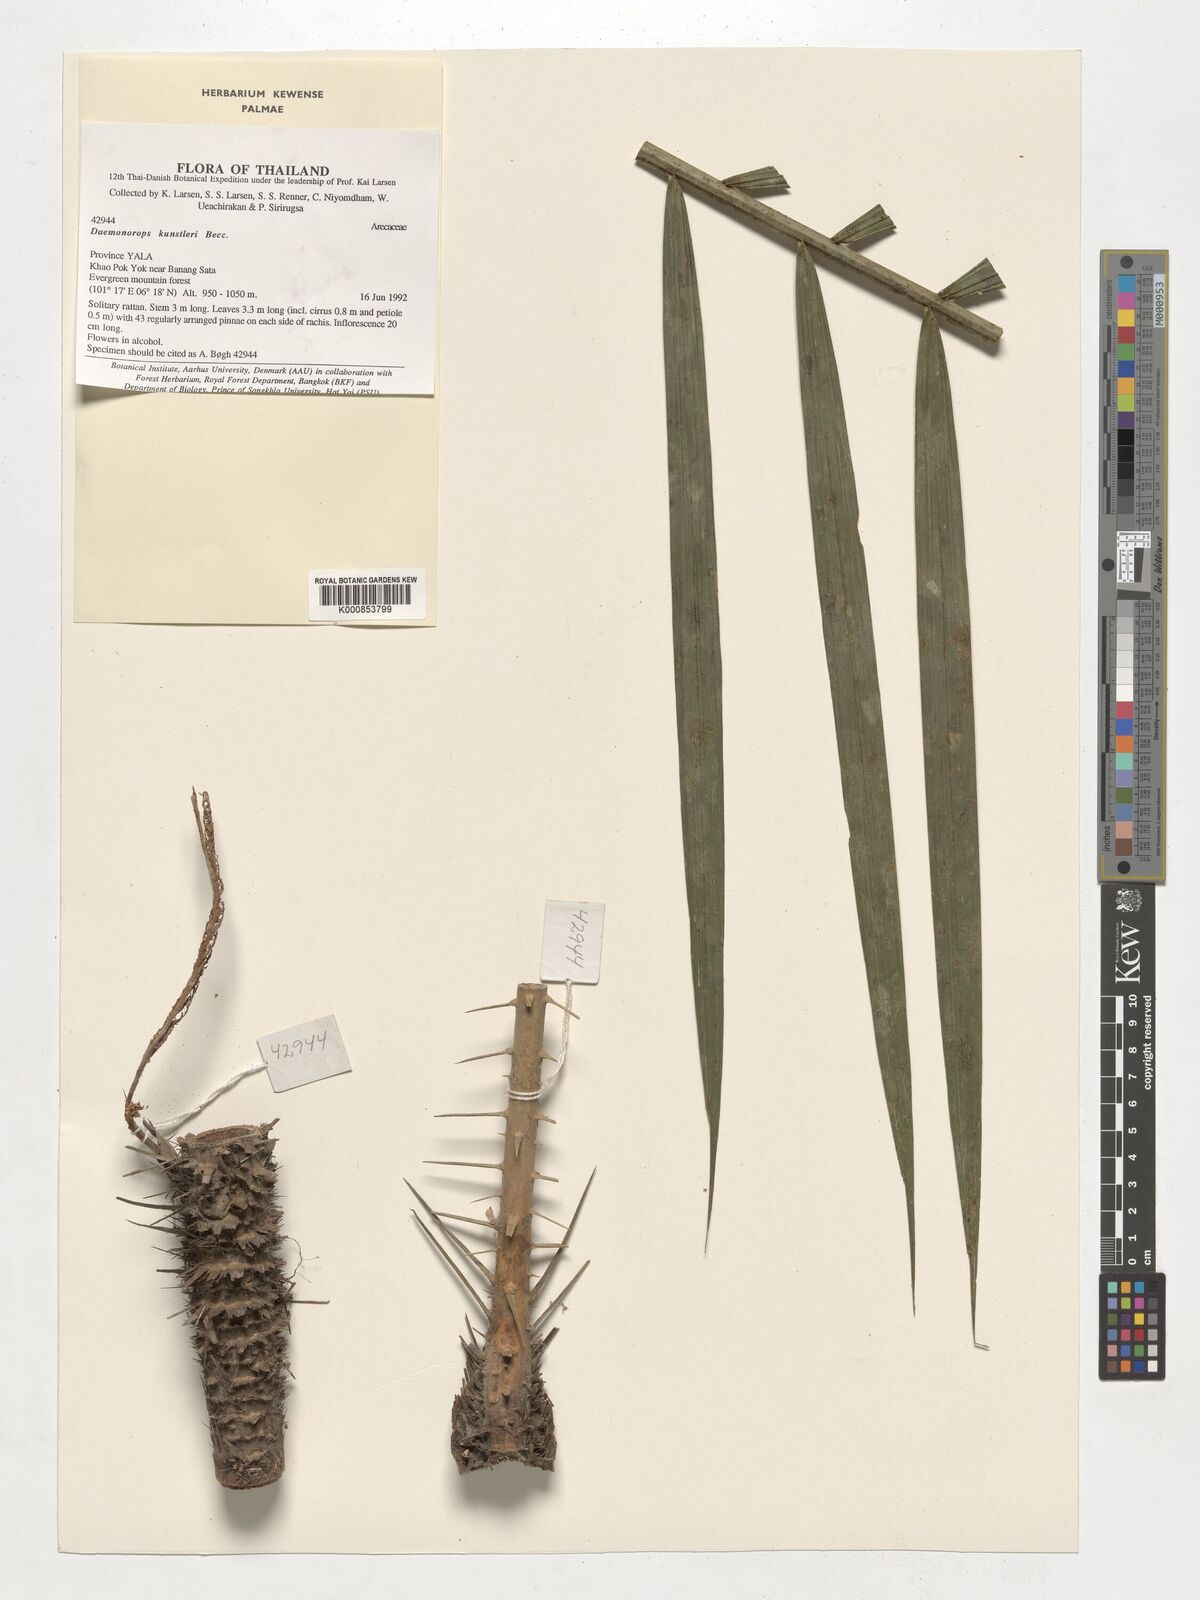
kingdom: Plantae
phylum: Tracheophyta
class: Liliopsida
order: Arecales
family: Arecaceae
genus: Calamus
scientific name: Calamus melanochaetes
